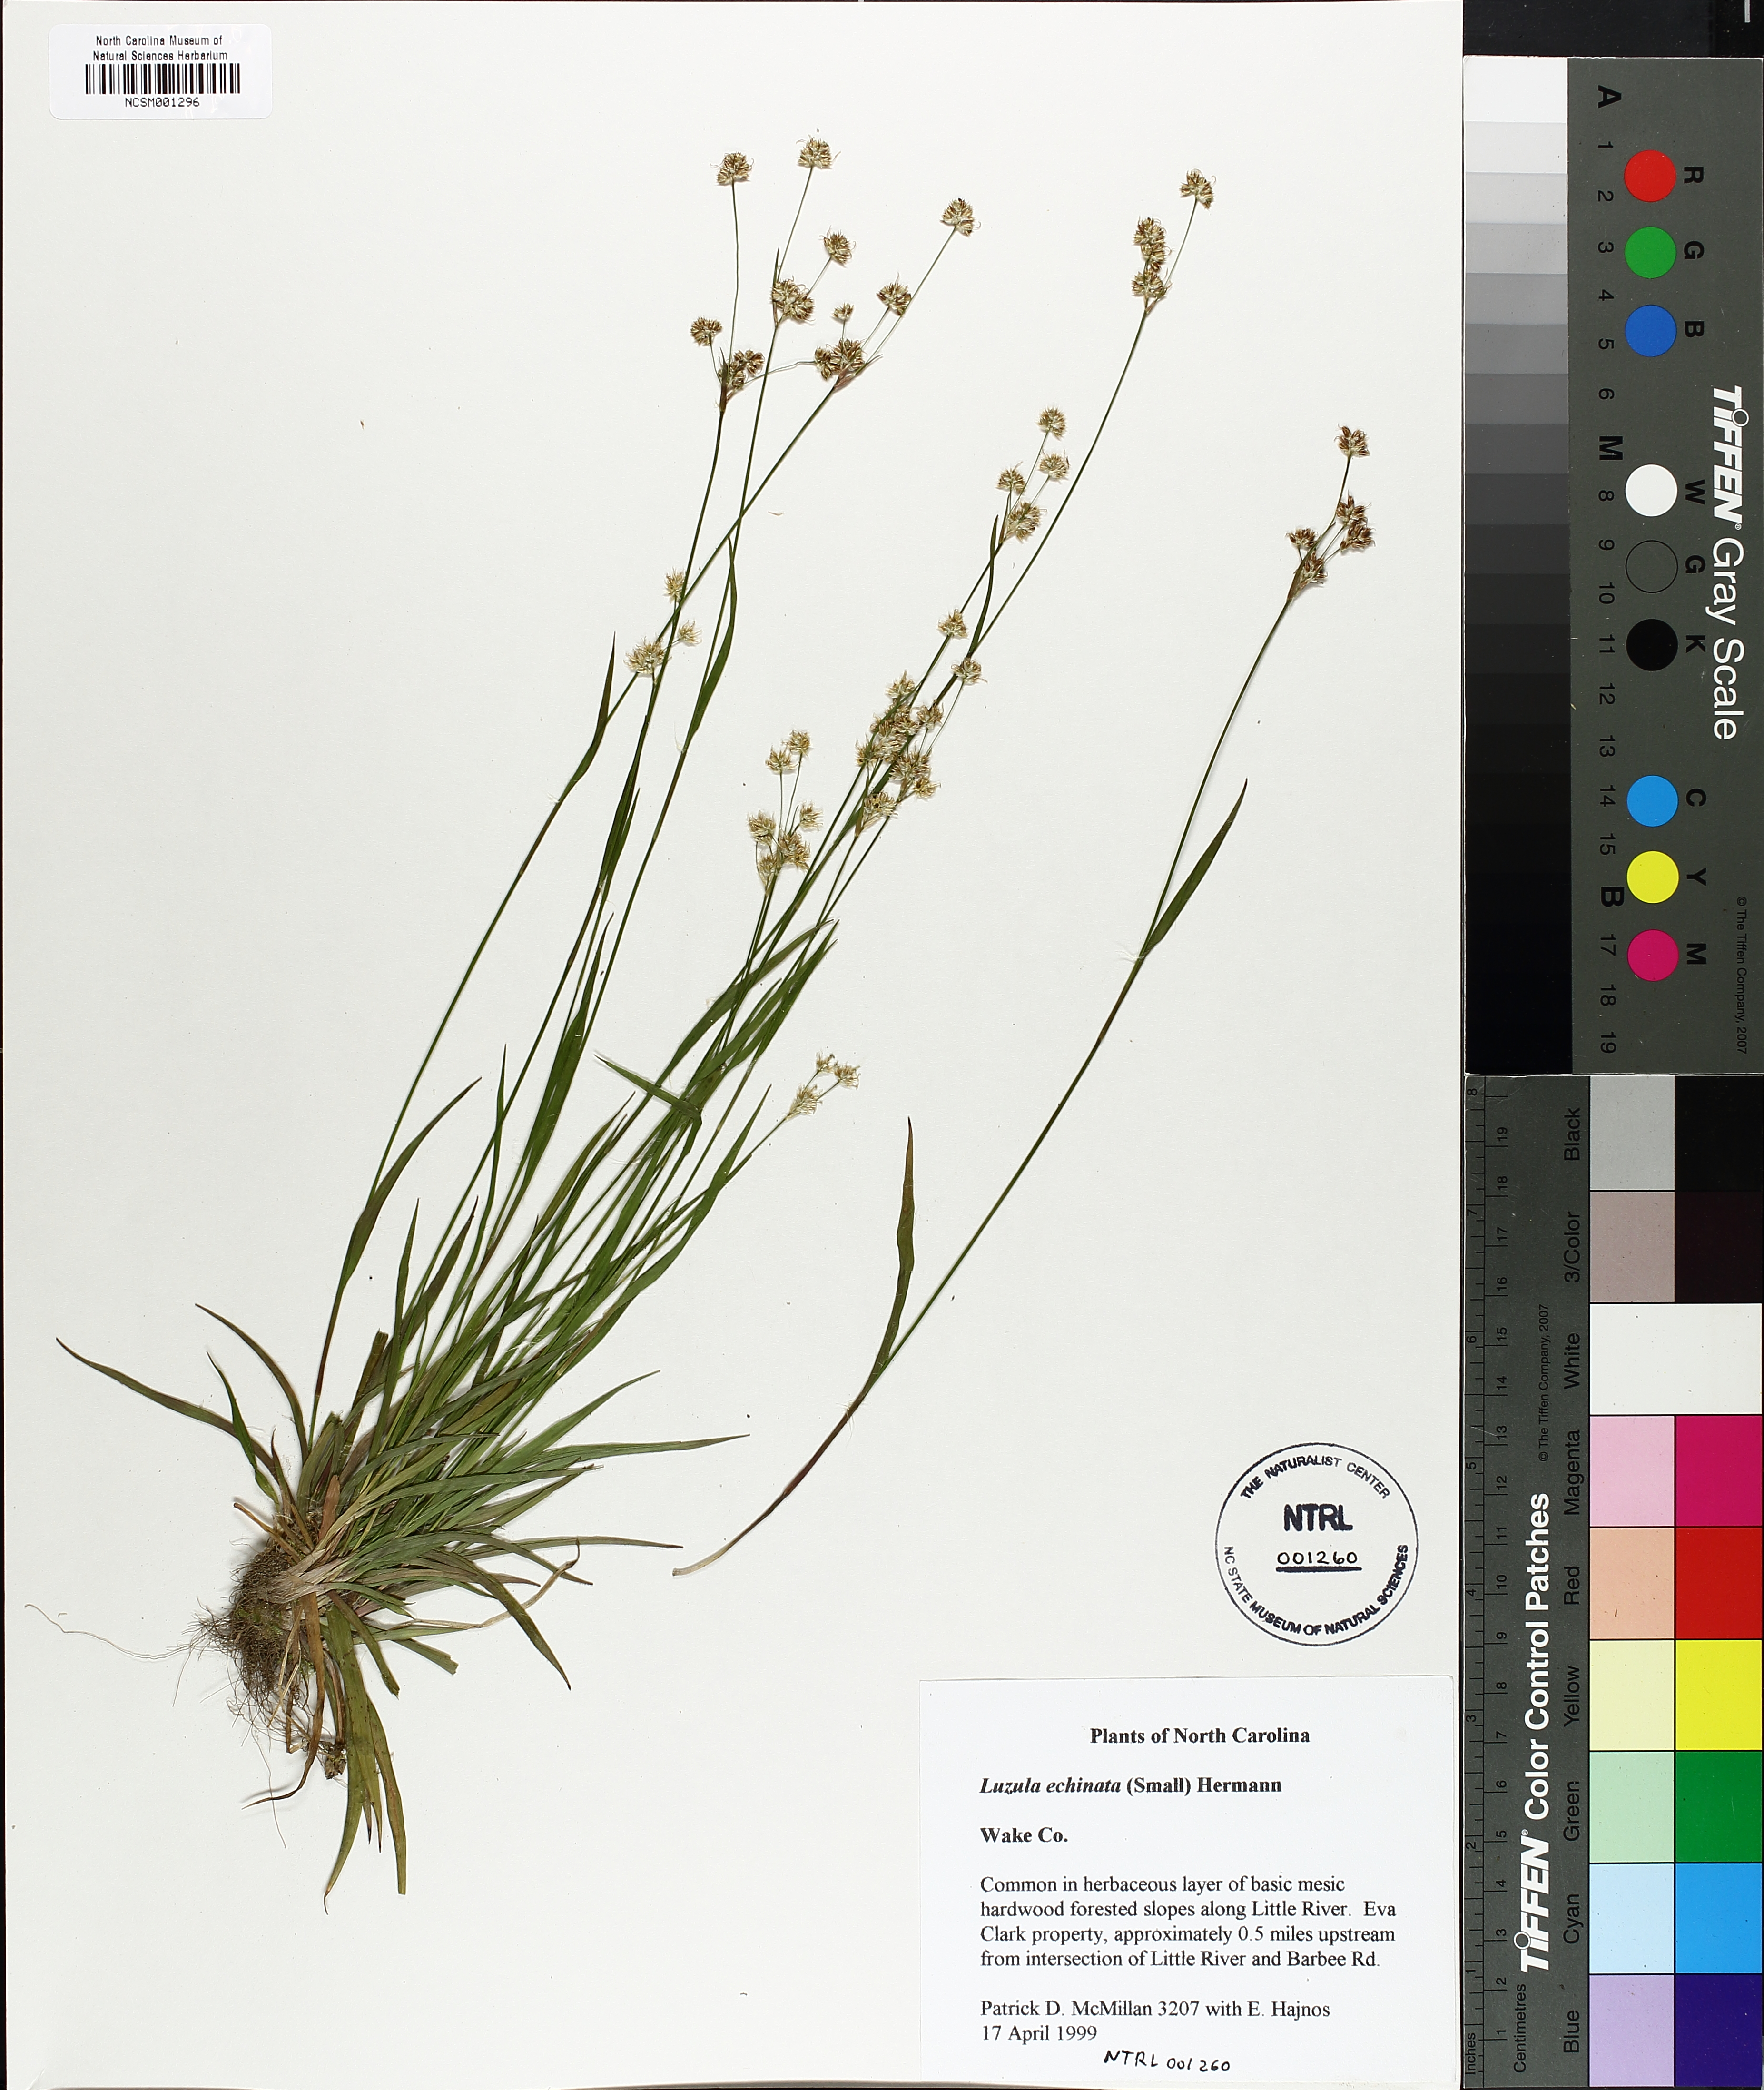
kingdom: Plantae
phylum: Tracheophyta
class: Liliopsida
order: Poales
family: Juncaceae
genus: Luzula
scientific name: Luzula echinata
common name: Hedgehog woodrush
